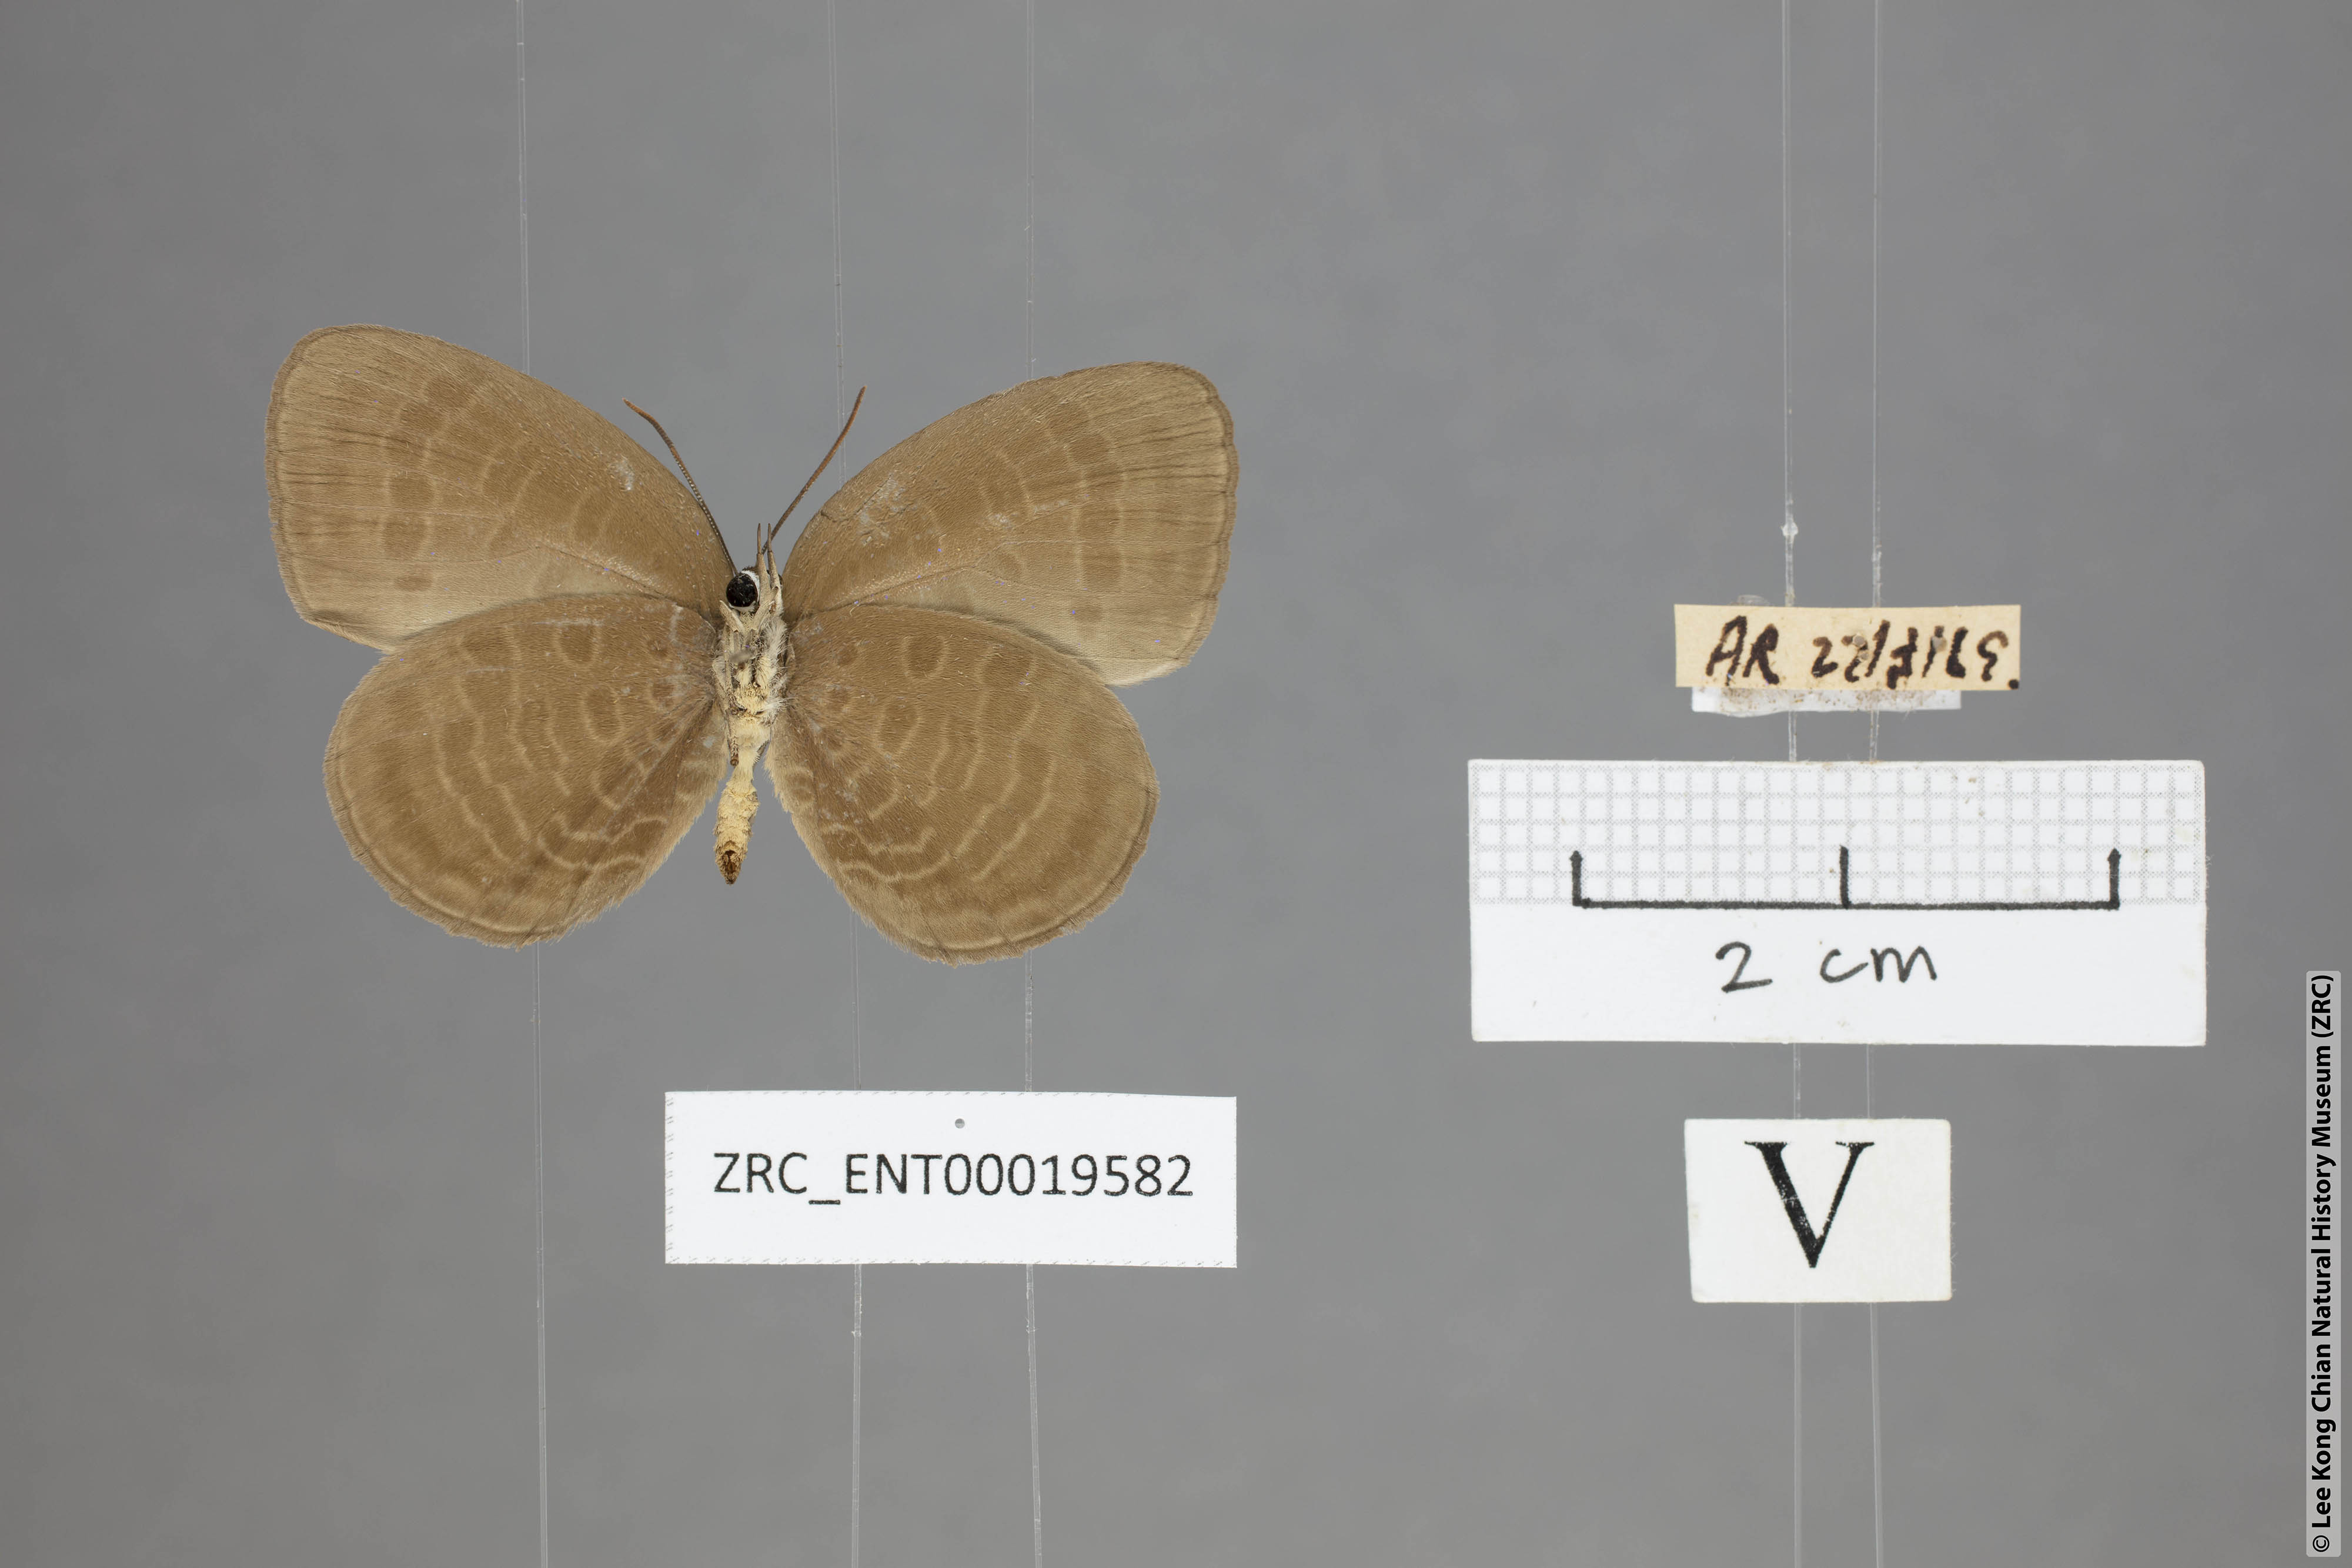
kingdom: Animalia
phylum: Arthropoda
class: Insecta
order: Lepidoptera
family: Lycaenidae
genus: Arhopala
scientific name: Arhopala inornata
